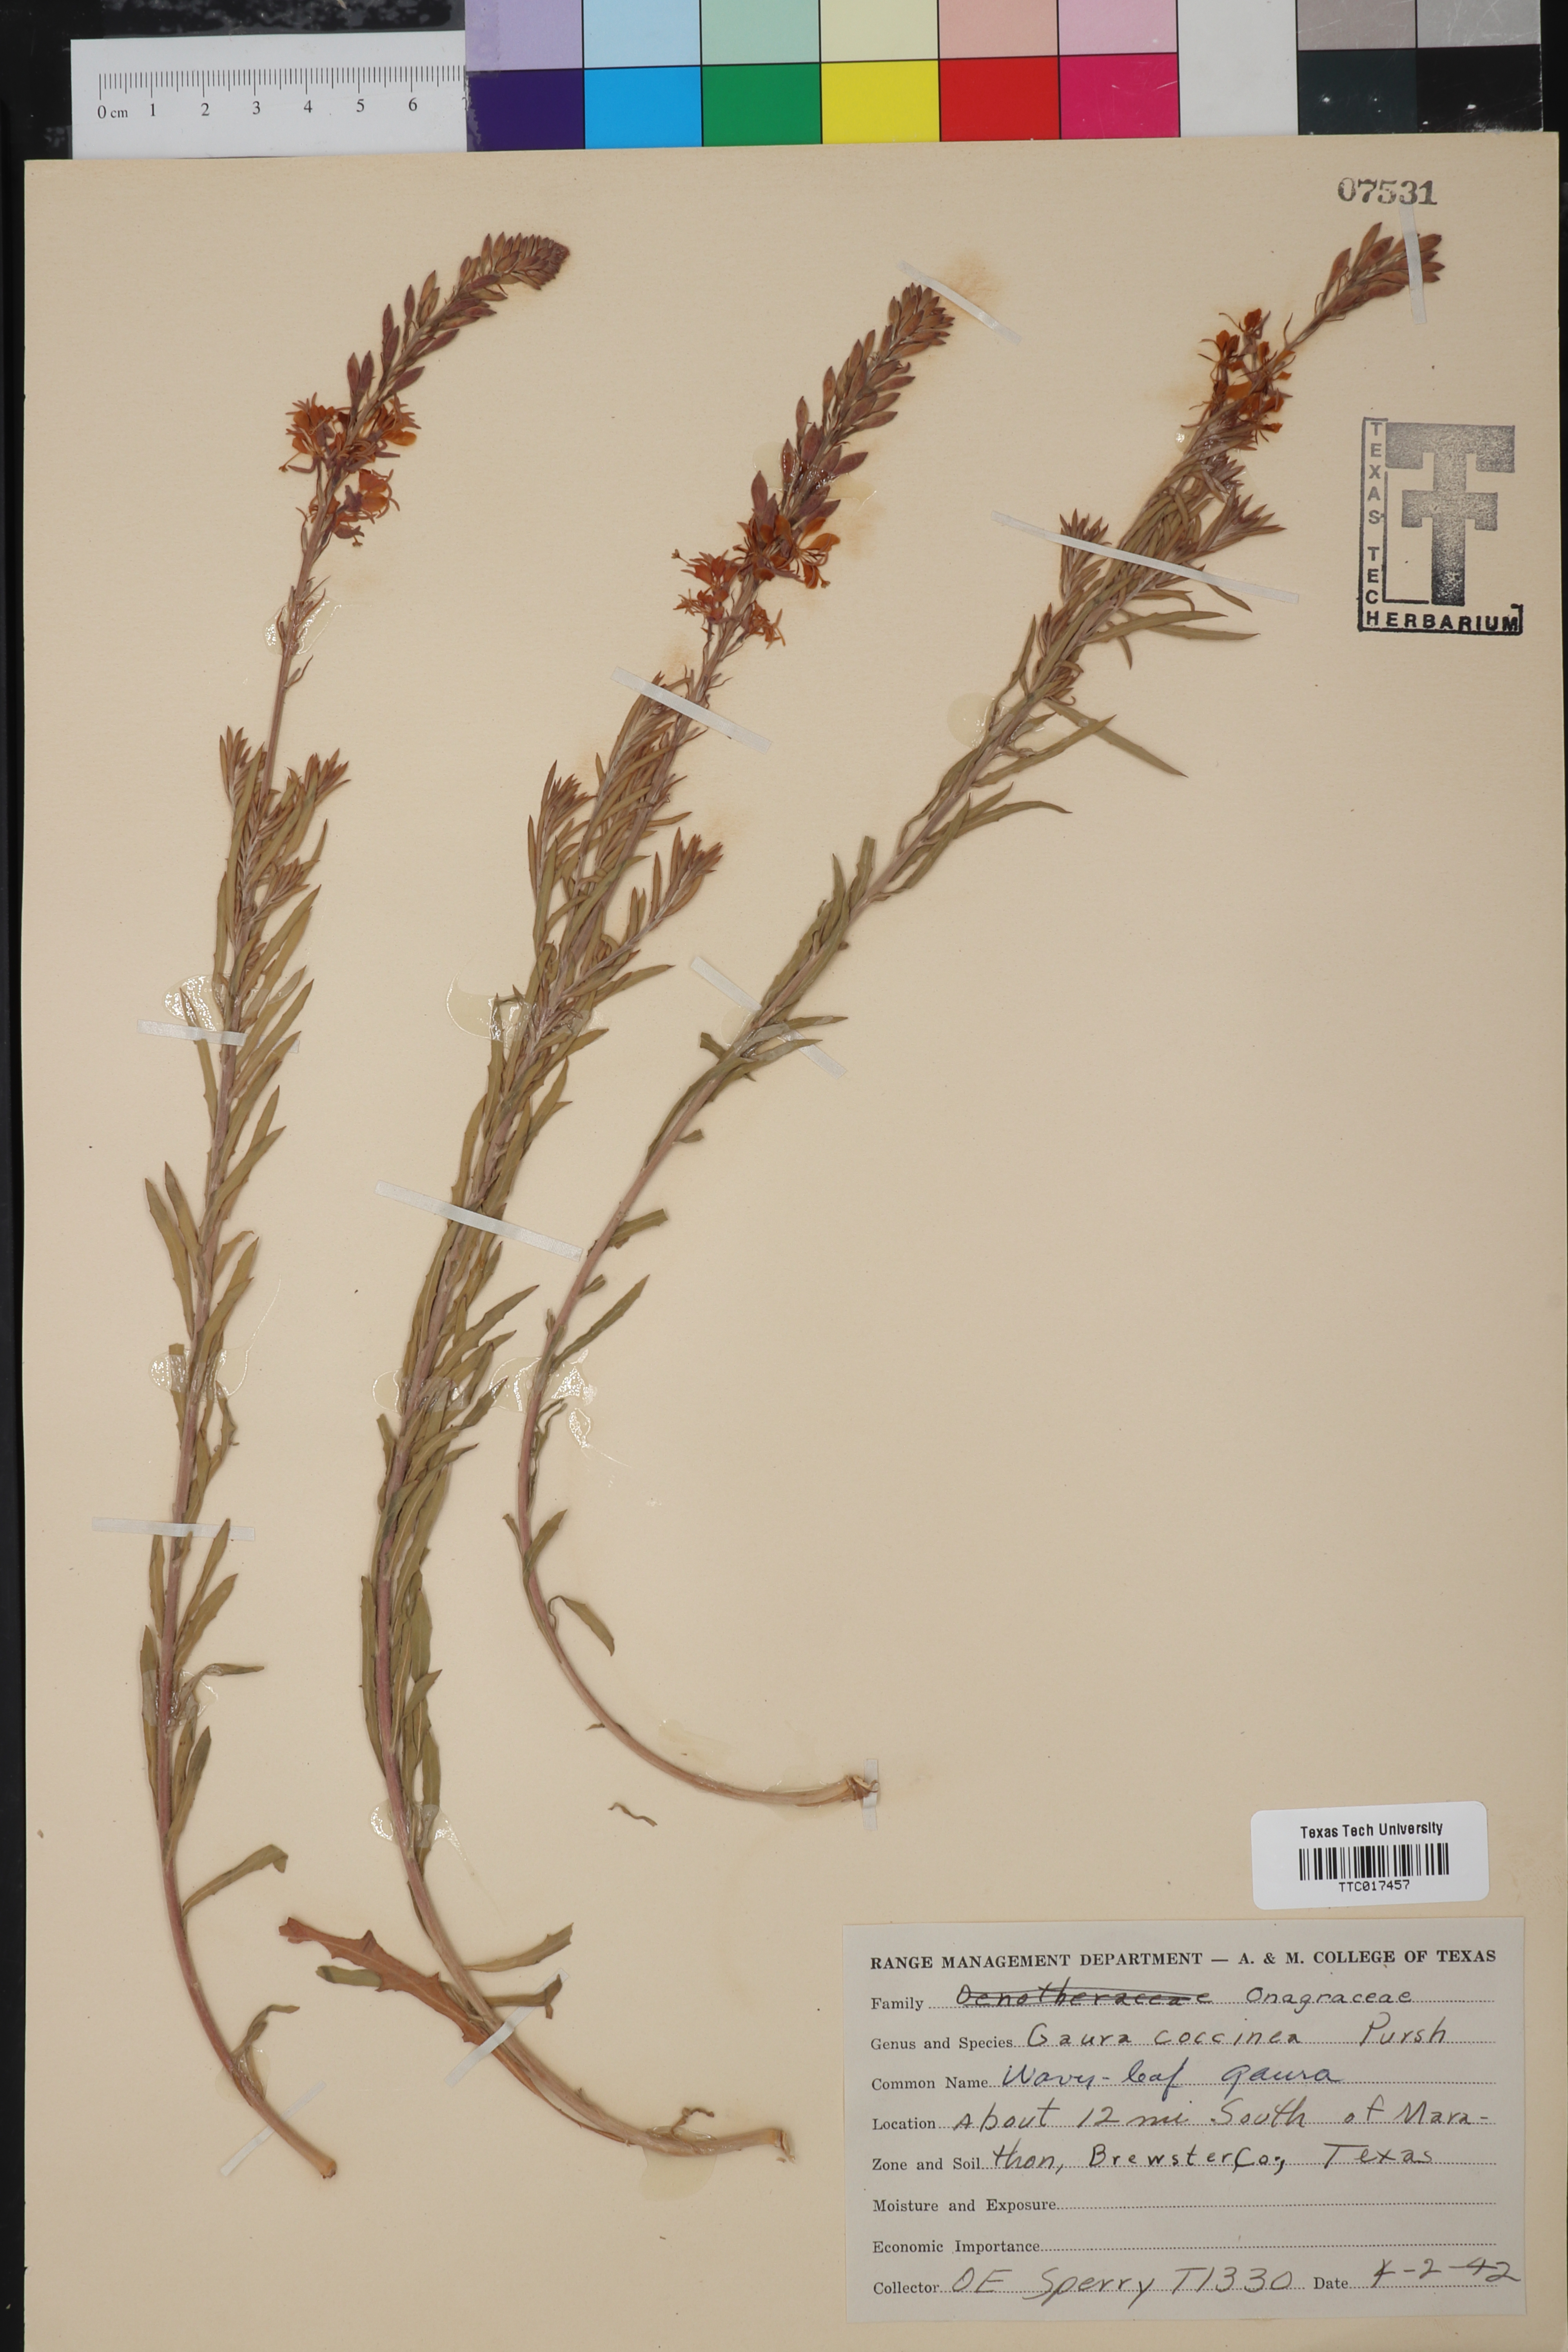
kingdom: Plantae
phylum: Tracheophyta
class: Magnoliopsida
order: Myrtales
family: Onagraceae
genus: Oenothera
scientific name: Oenothera suffrutescens
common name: Scarlet beeblossom
